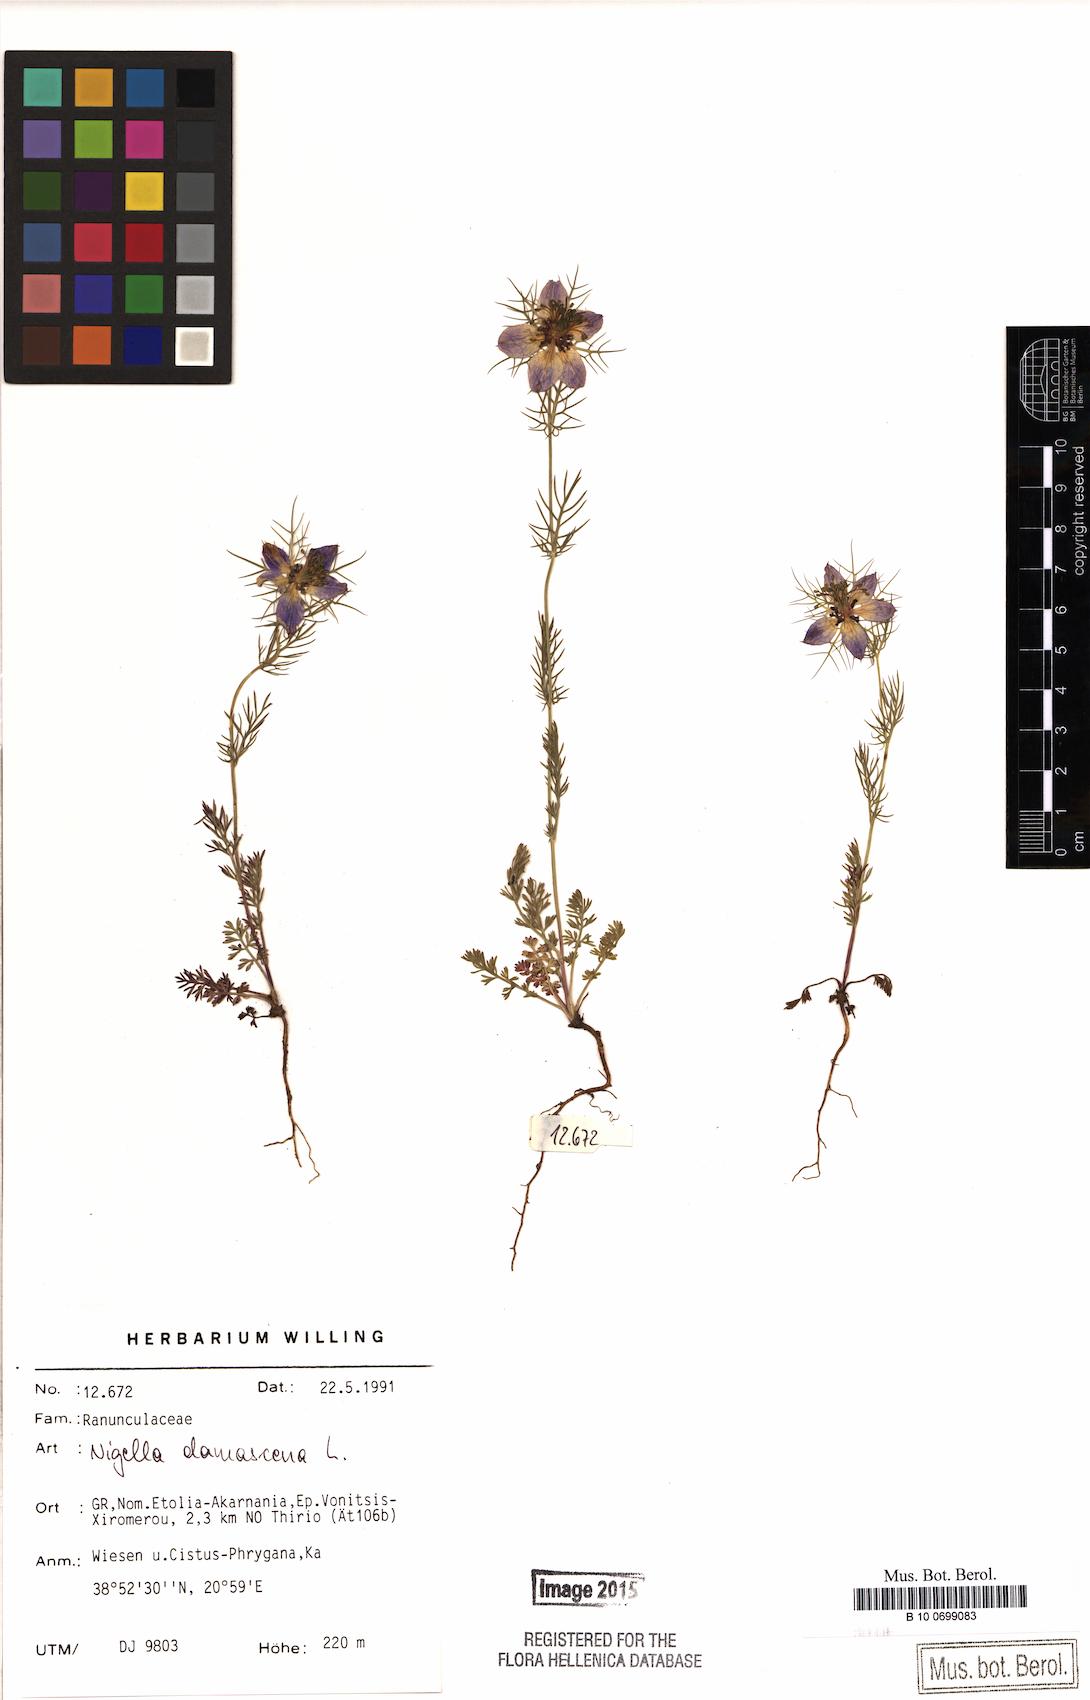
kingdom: Plantae
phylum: Tracheophyta
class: Magnoliopsida
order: Ranunculales
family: Ranunculaceae
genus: Nigella
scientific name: Nigella damascena
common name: Love-in-a-mist
